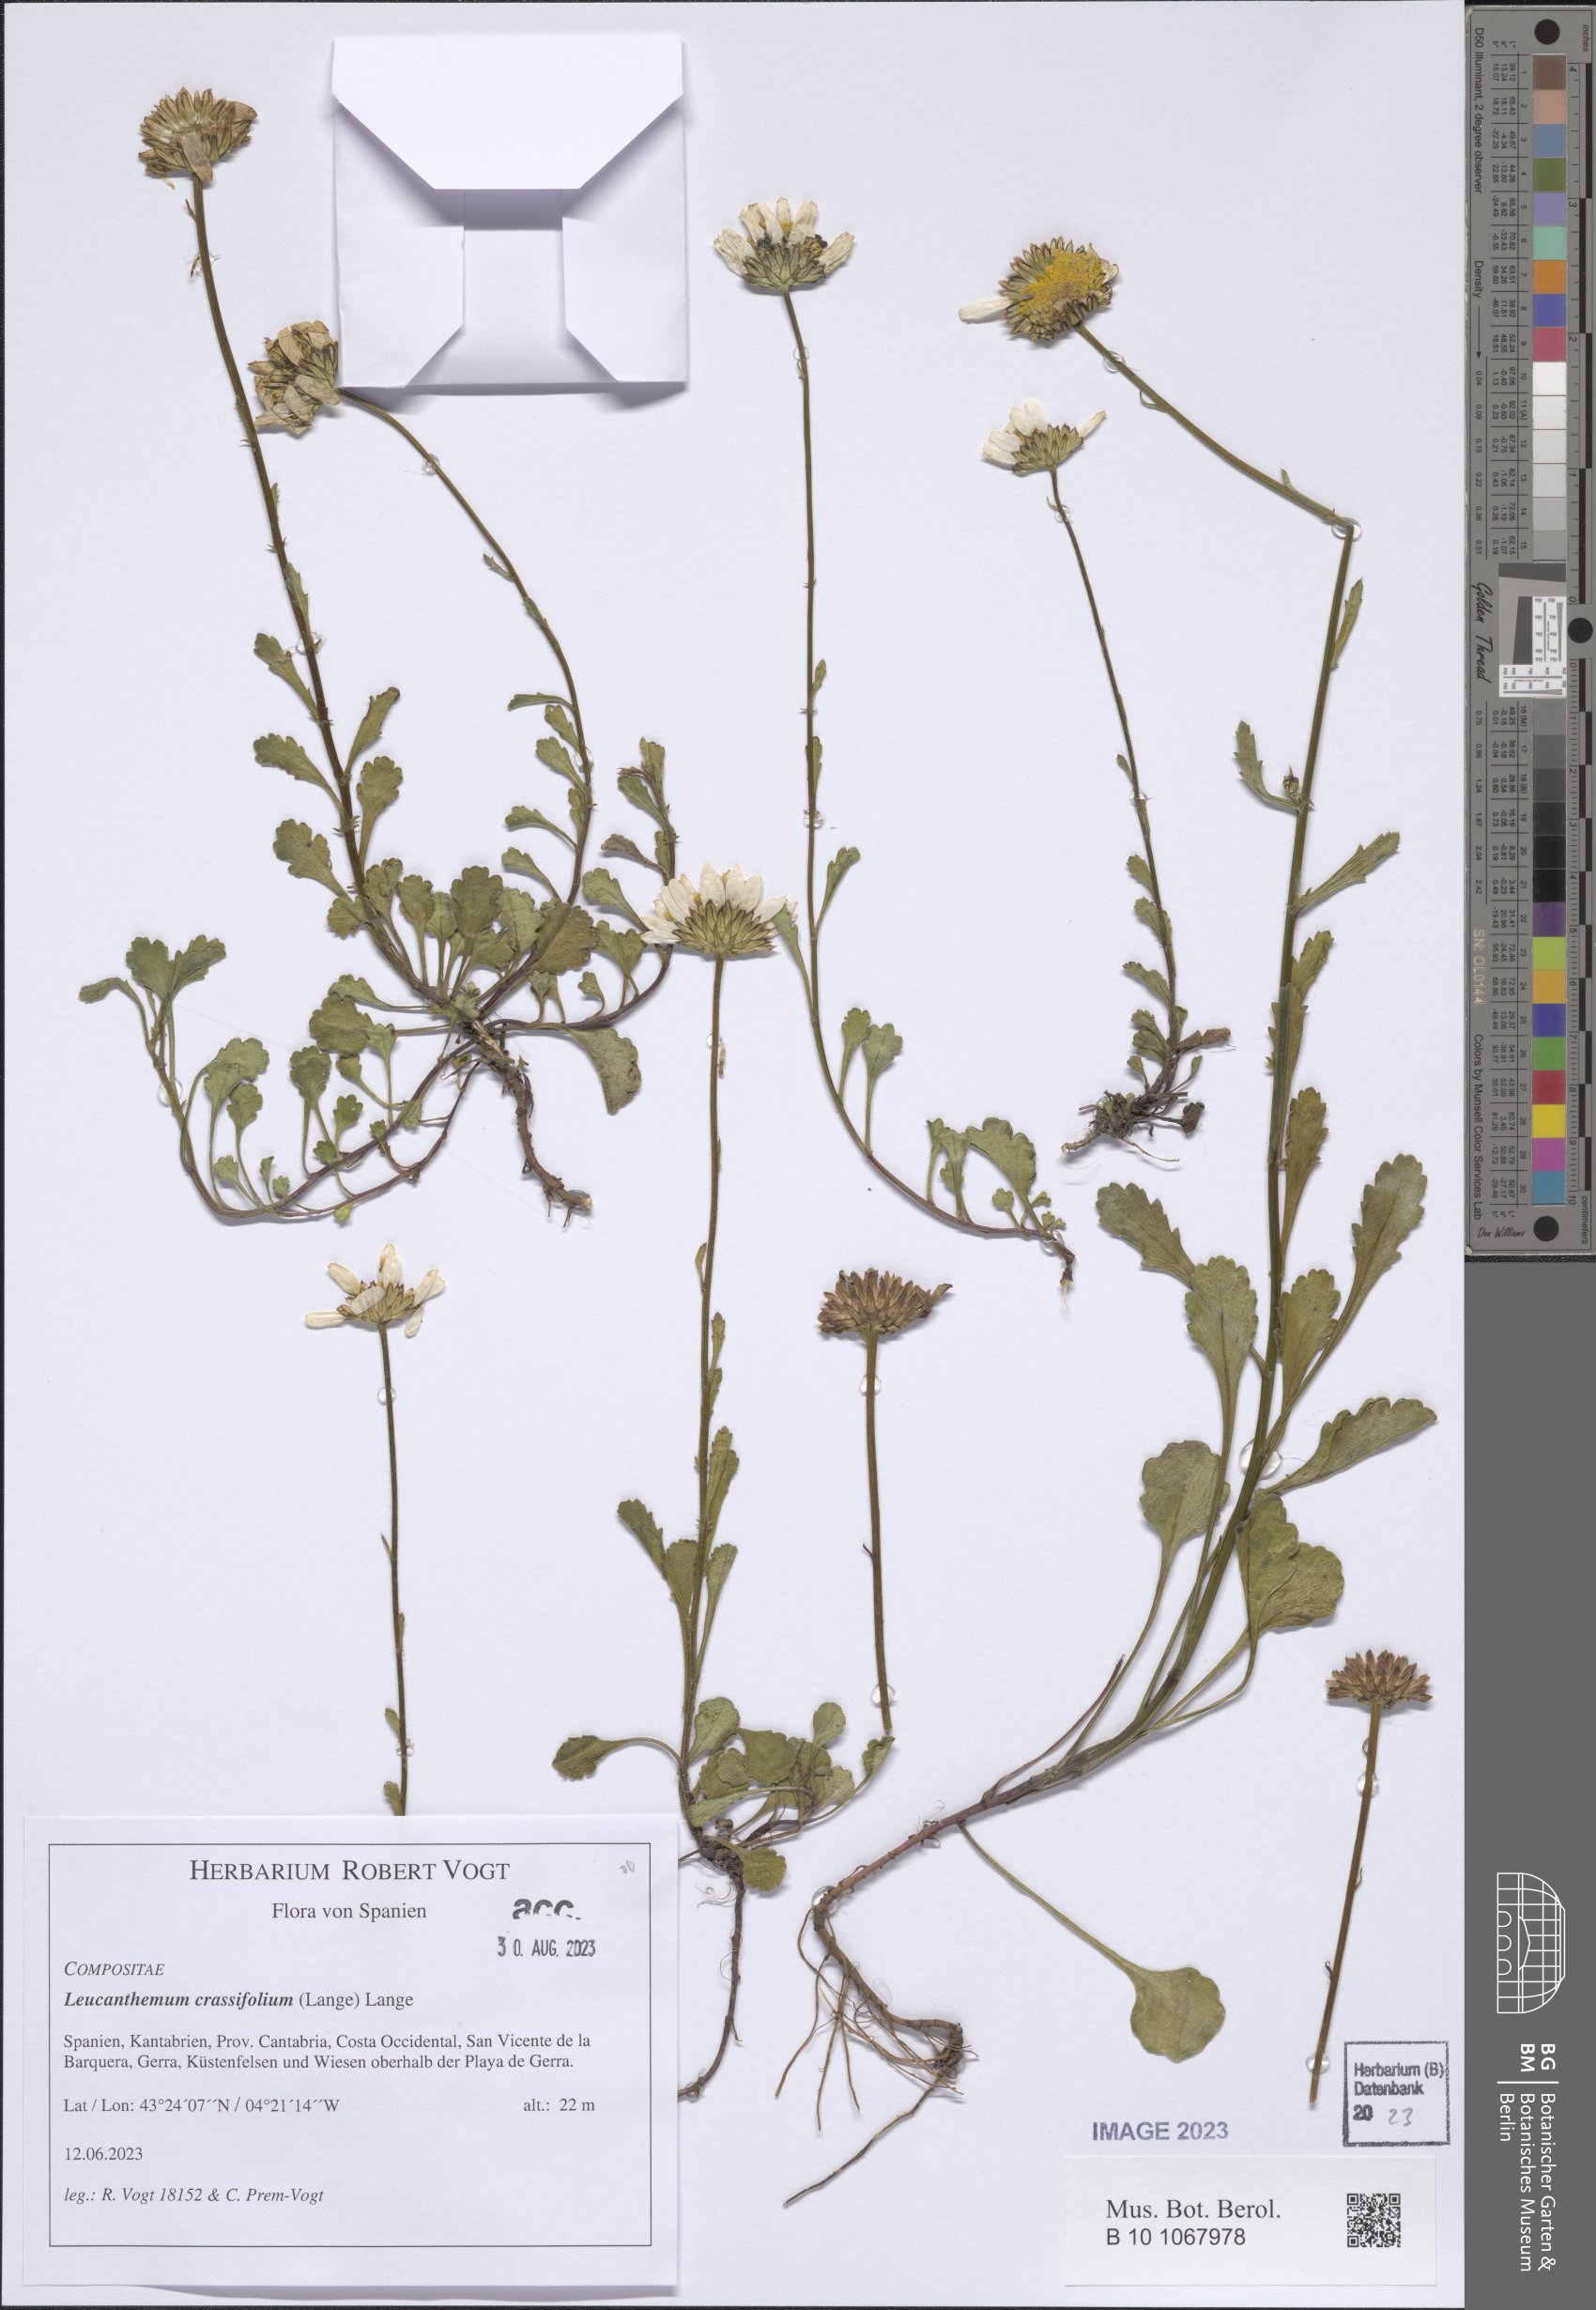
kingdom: Plantae
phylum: Tracheophyta
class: Magnoliopsida
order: Asterales
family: Asteraceae
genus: Leucanthemum
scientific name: Leucanthemum crassifolium
